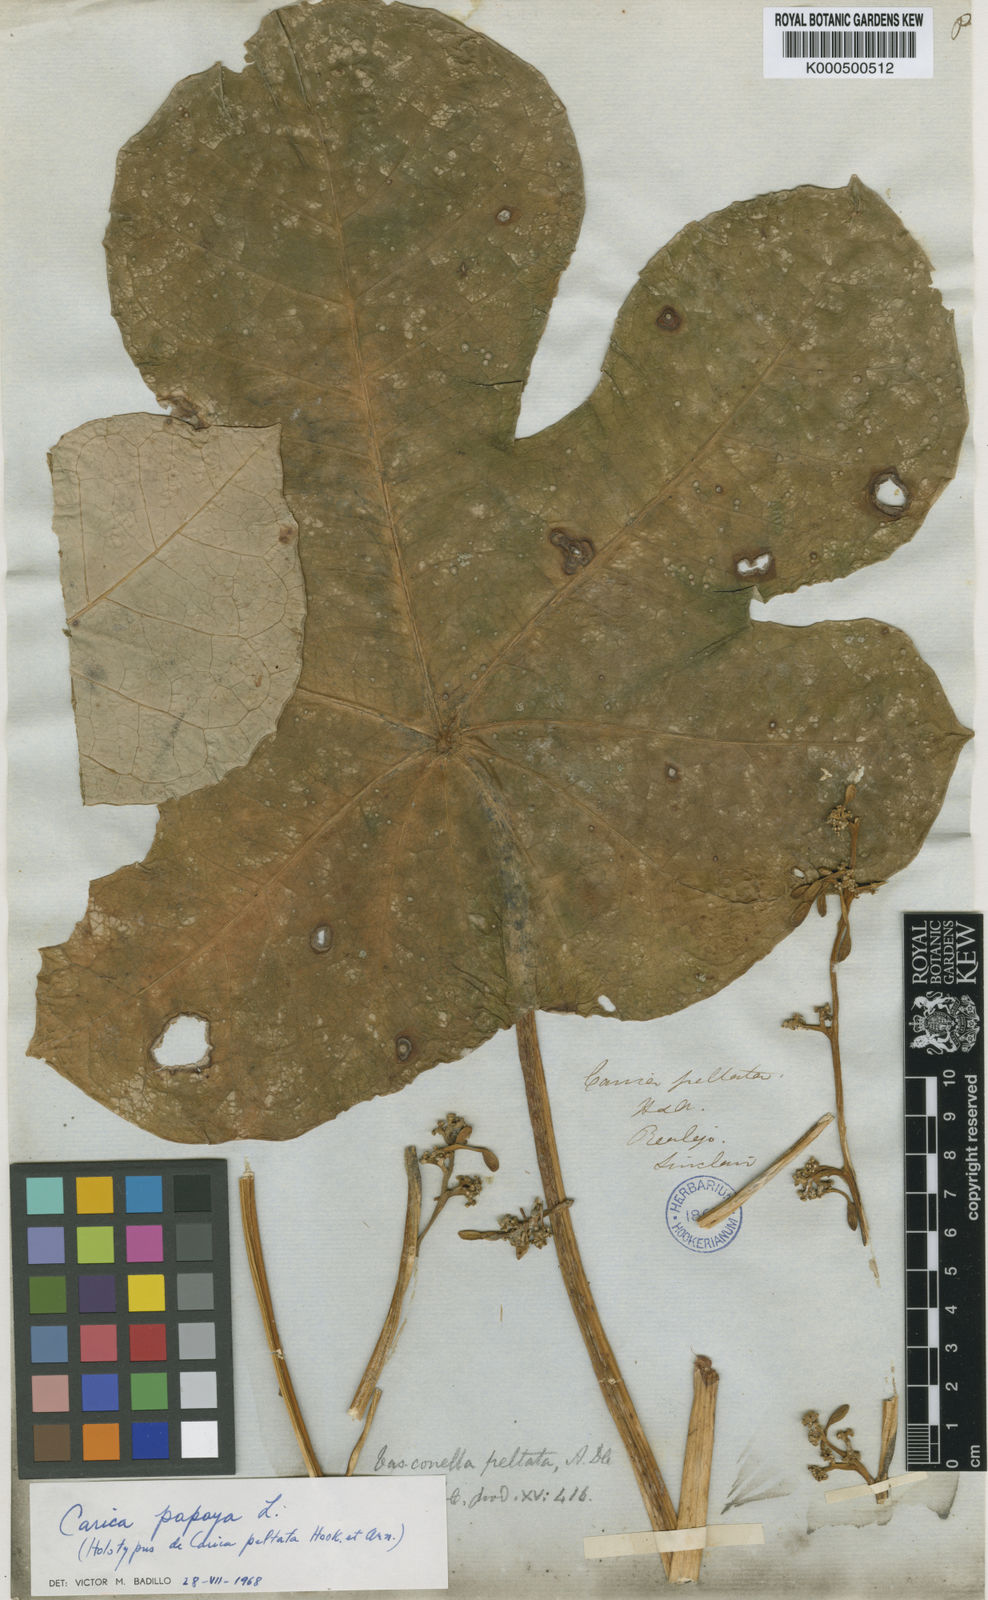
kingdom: Plantae
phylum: Tracheophyta
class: Magnoliopsida
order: Brassicales
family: Caricaceae
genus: Carica
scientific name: Carica papaya
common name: Papaya
